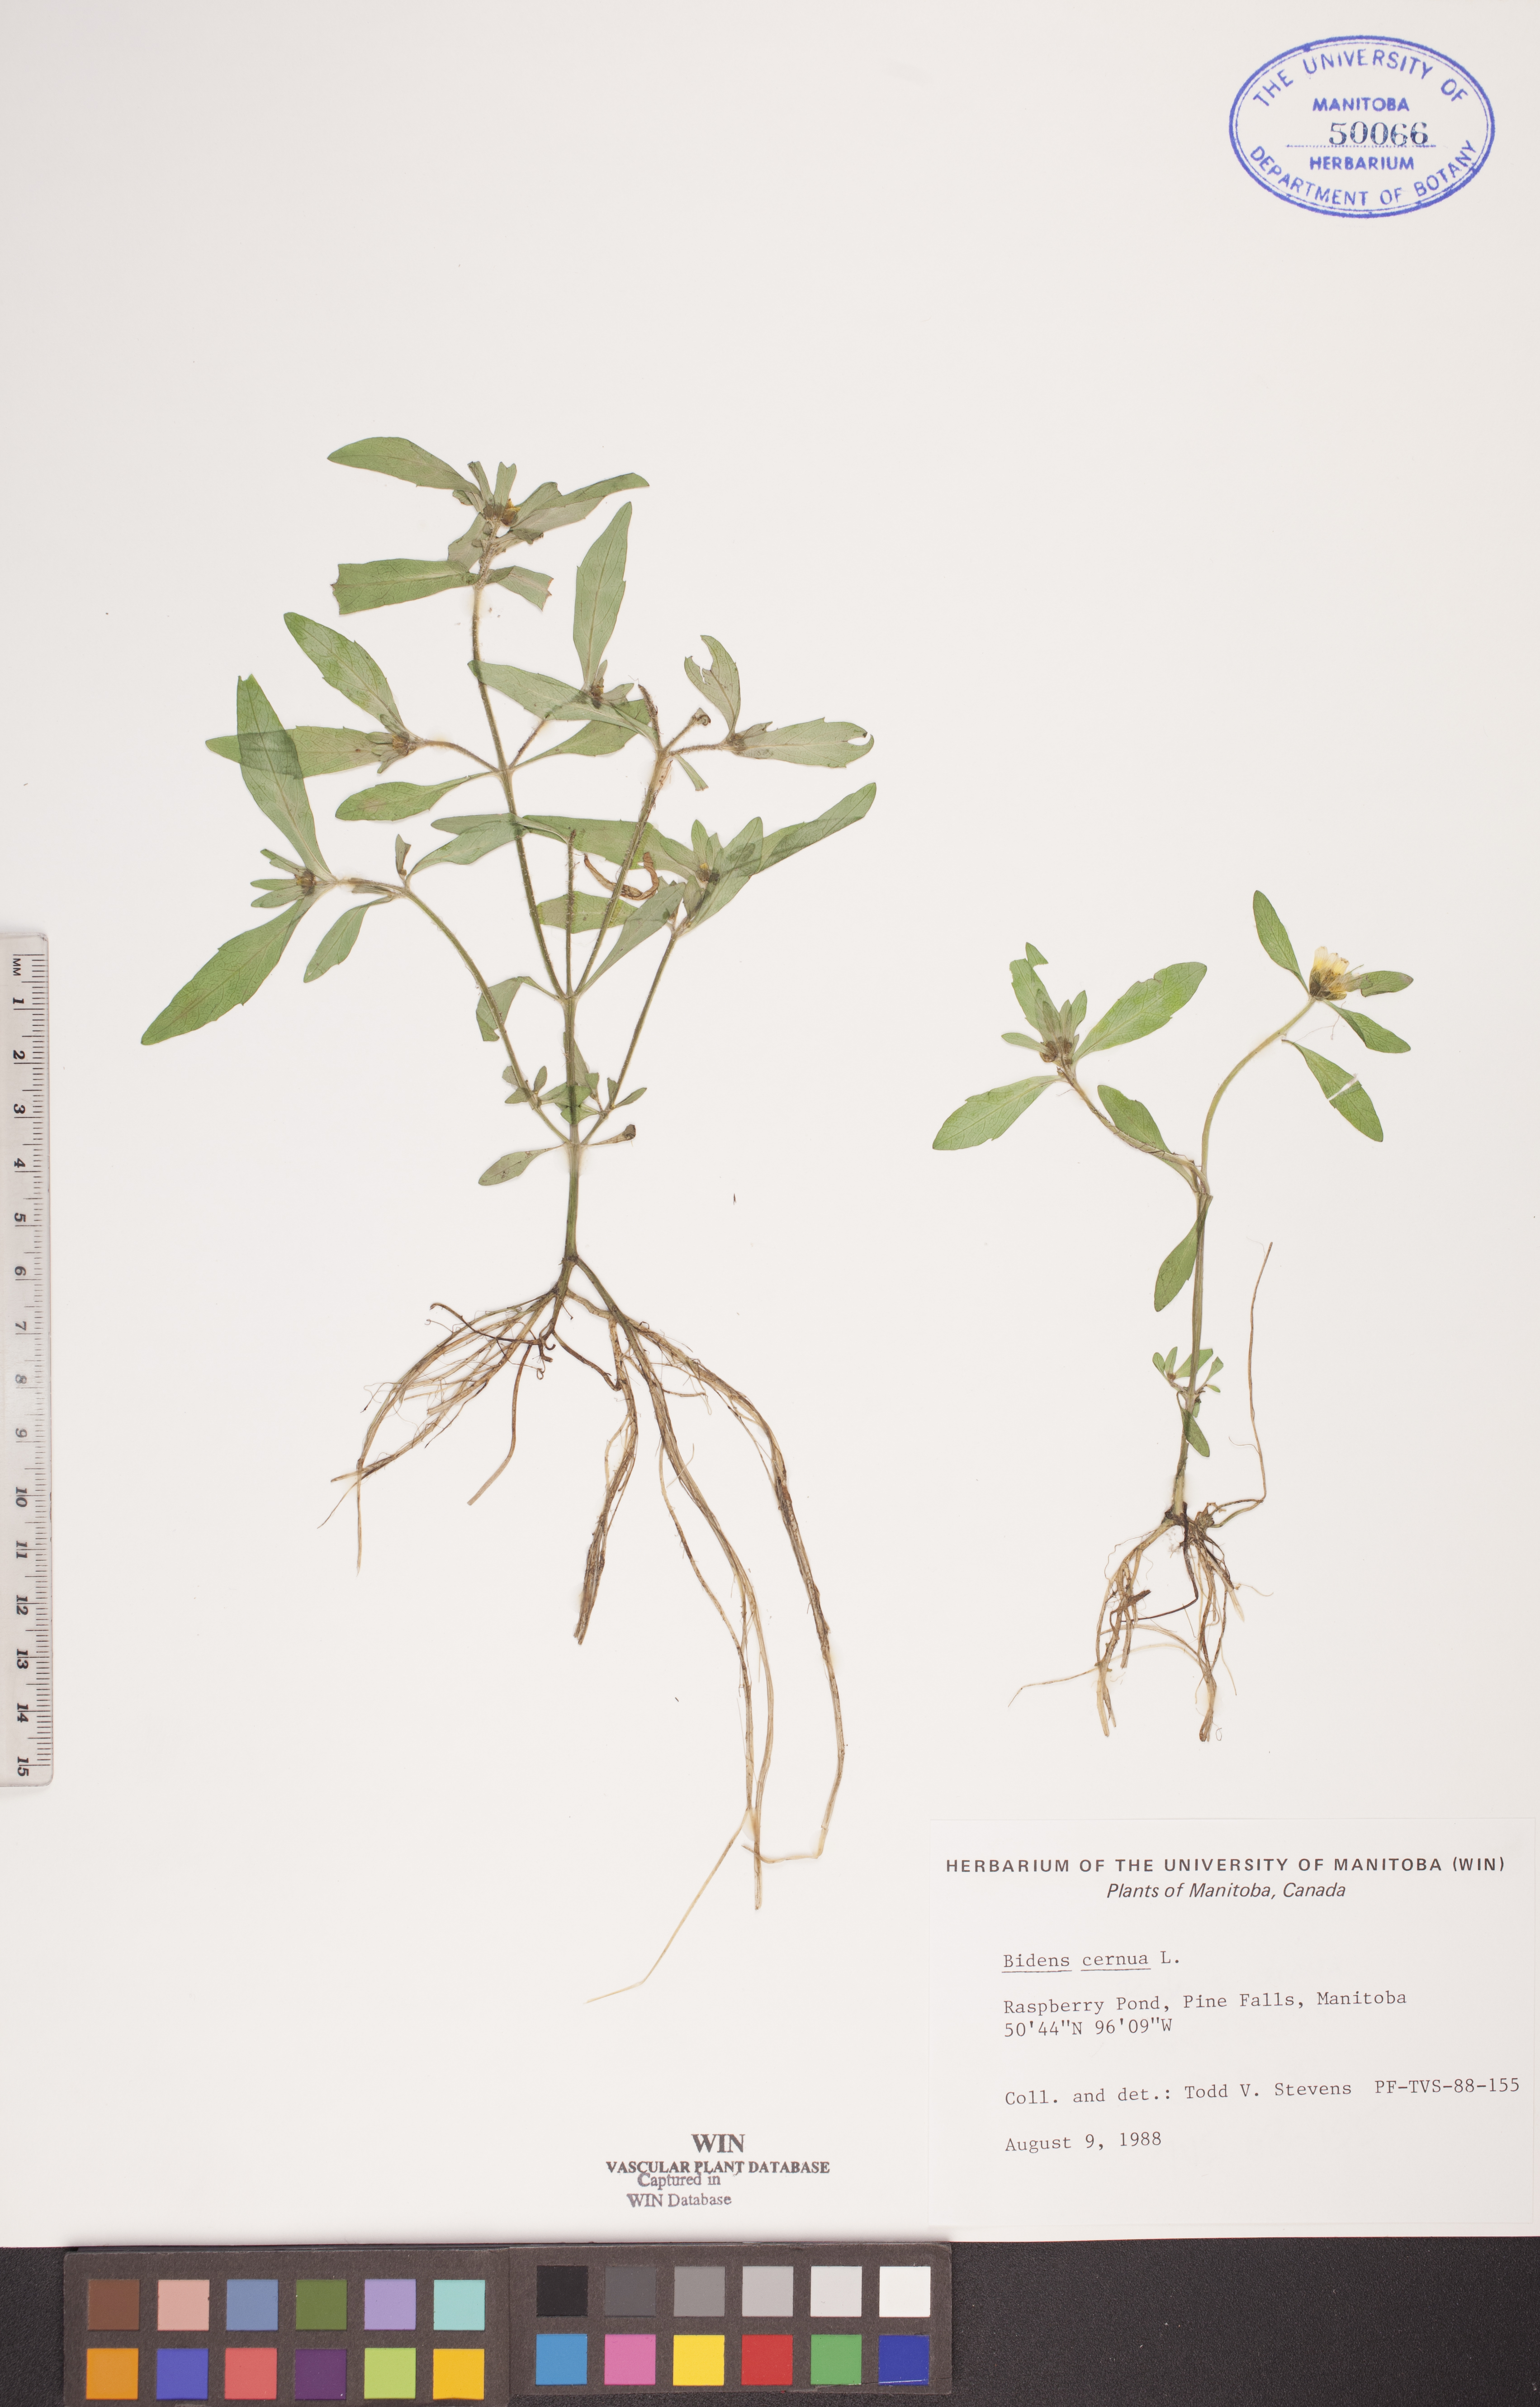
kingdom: Plantae
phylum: Tracheophyta
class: Magnoliopsida
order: Asterales
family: Asteraceae
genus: Bidens
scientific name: Bidens cernua
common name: Nodding bur-marigold
